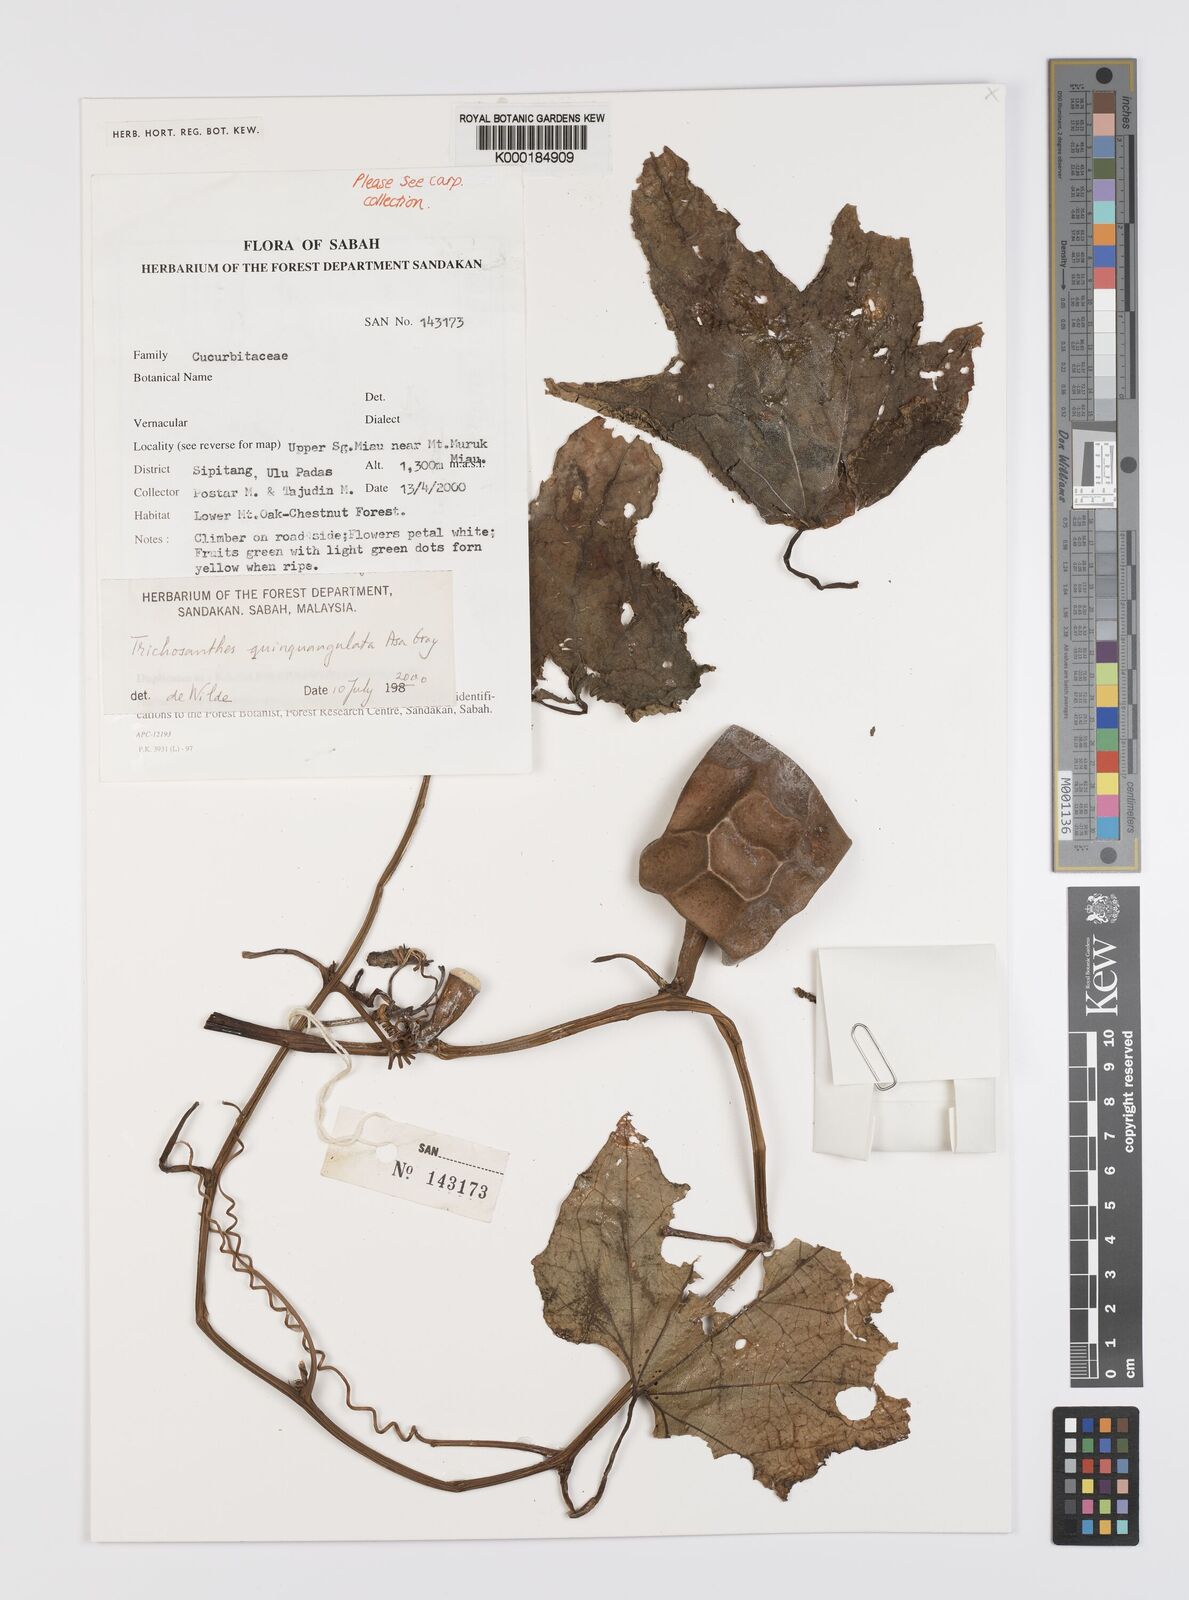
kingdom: Plantae
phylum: Tracheophyta
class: Magnoliopsida
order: Cucurbitales
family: Cucurbitaceae
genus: Trichosanthes
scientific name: Trichosanthes quinquangulata
